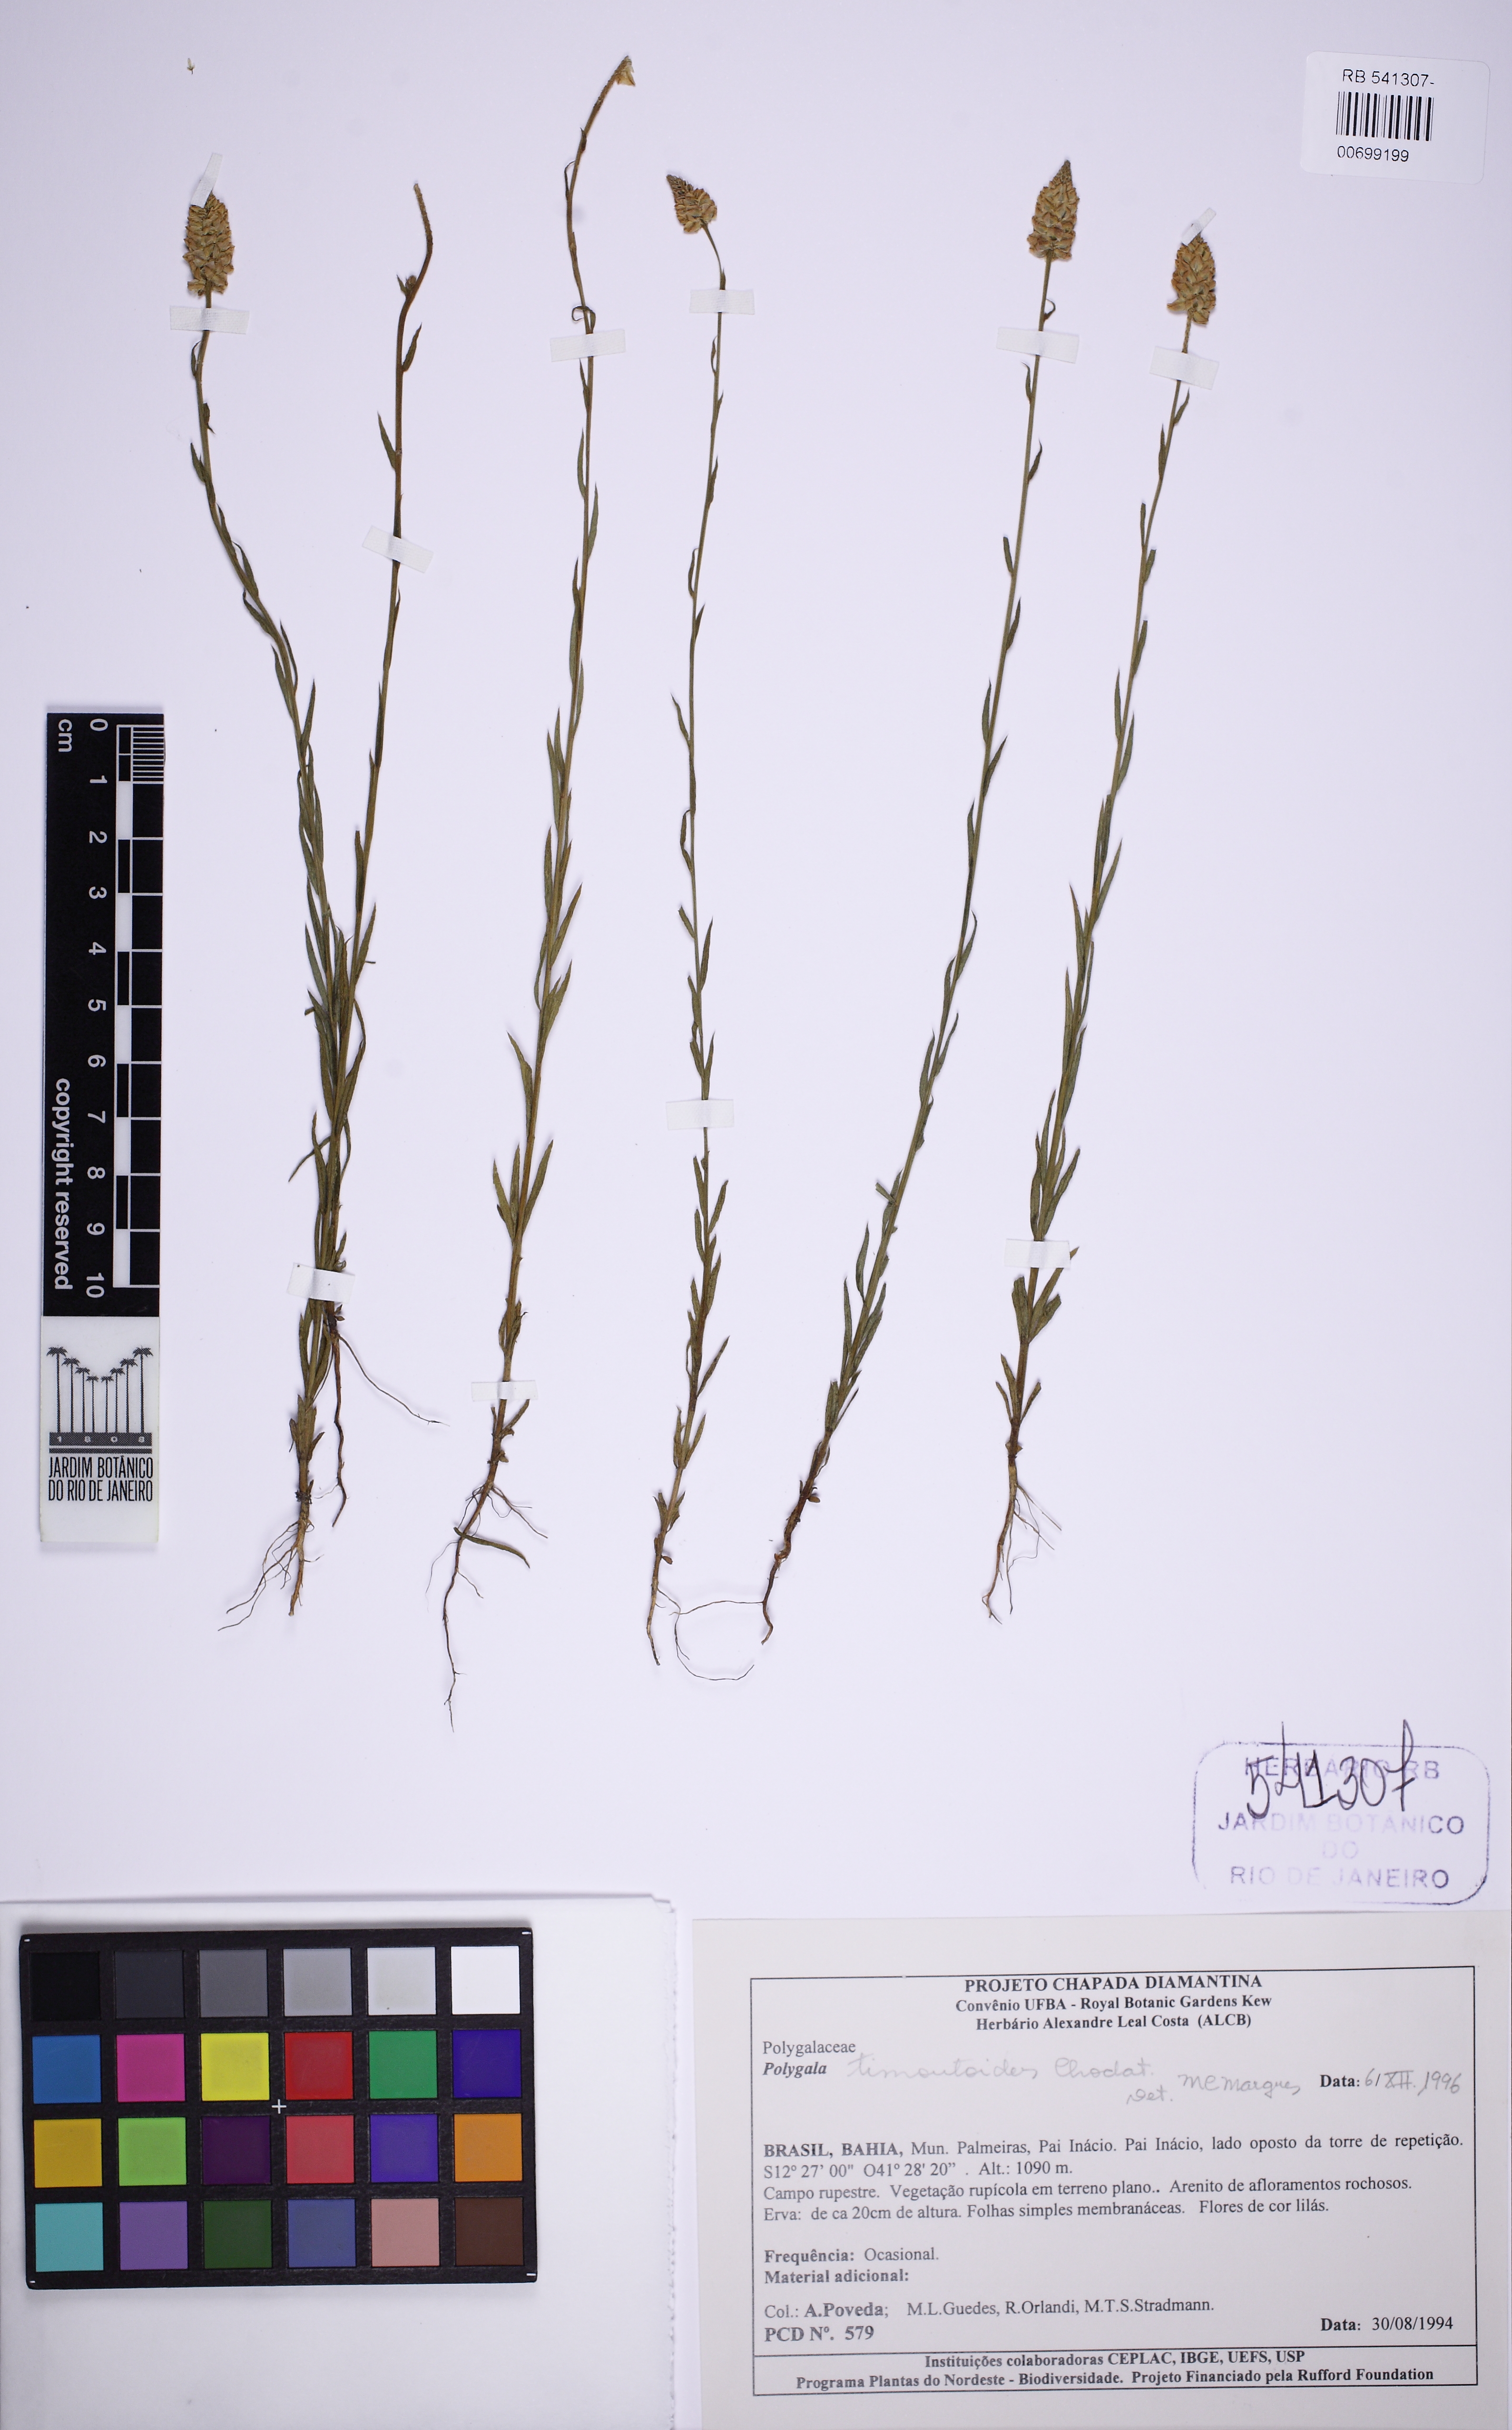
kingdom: Plantae
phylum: Tracheophyta
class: Magnoliopsida
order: Fabales
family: Polygalaceae
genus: Polygala
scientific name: Polygala timoutoides
